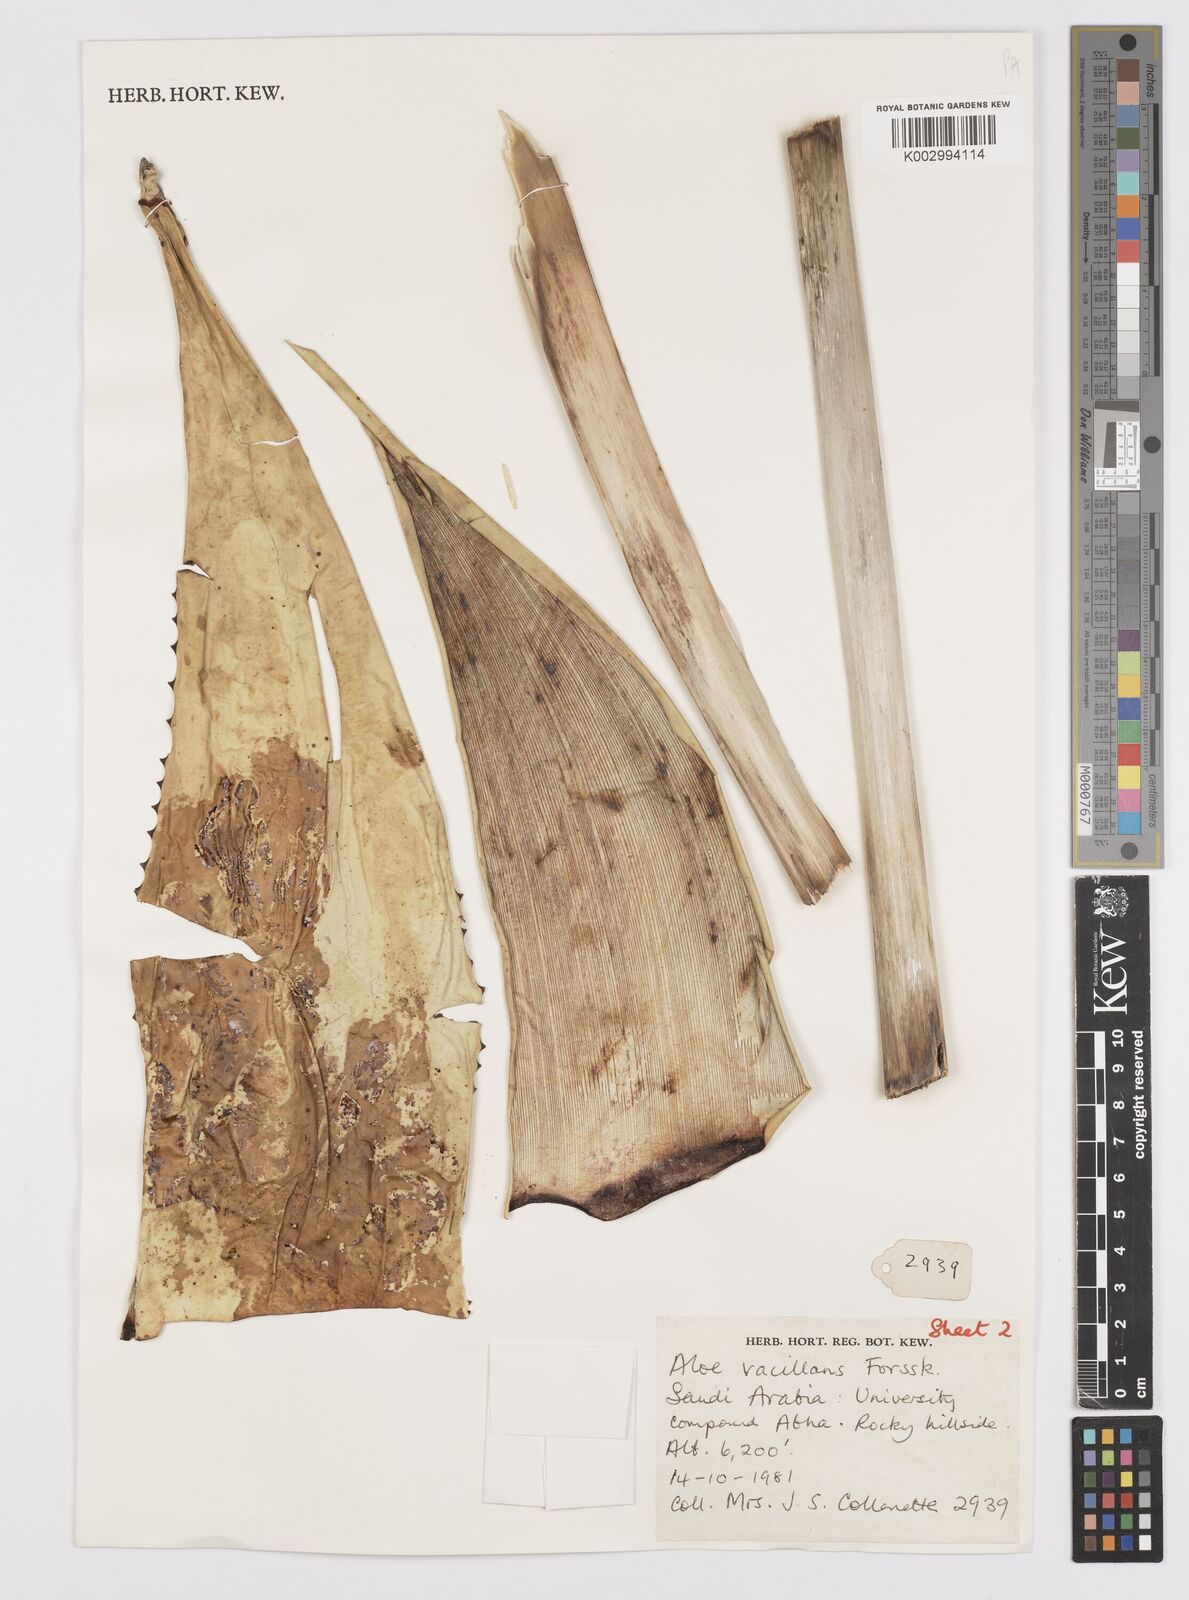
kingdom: Plantae
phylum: Tracheophyta
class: Liliopsida
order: Asparagales
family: Asphodelaceae
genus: Aloe
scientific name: Aloe vacillans
